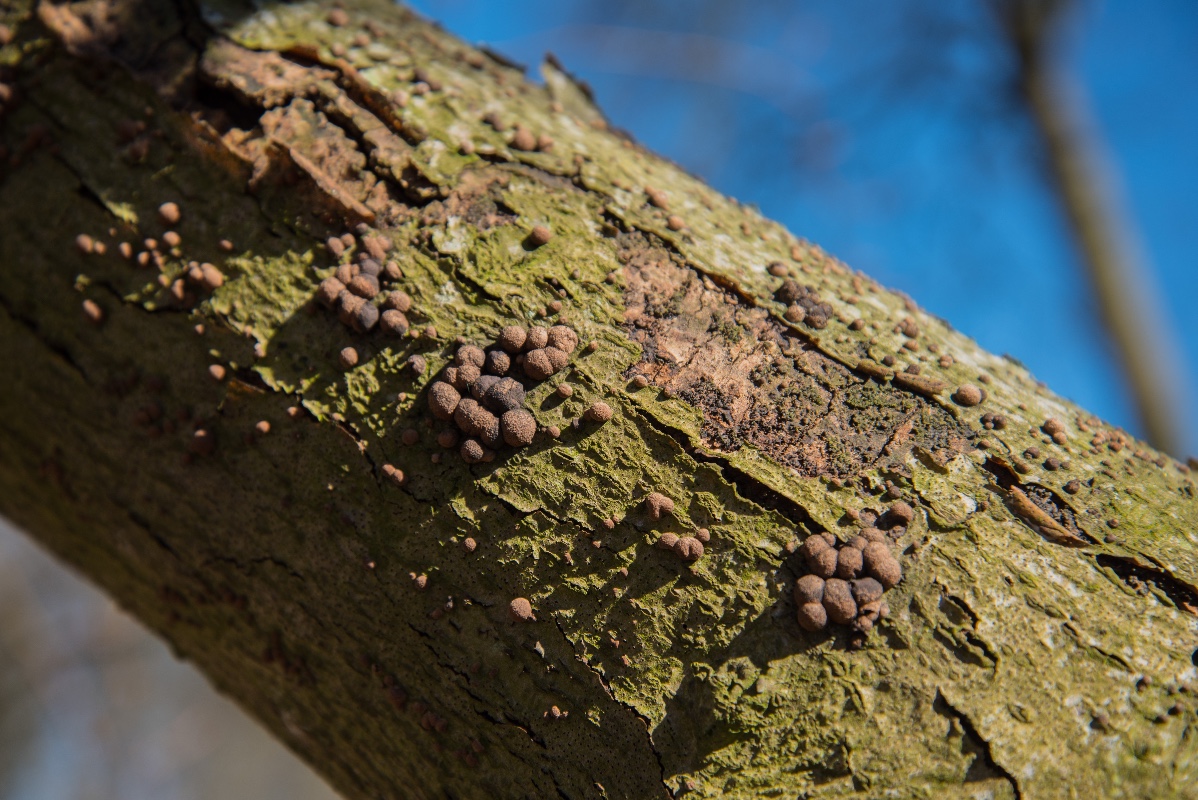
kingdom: Fungi
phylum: Ascomycota
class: Sordariomycetes
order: Xylariales
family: Hypoxylaceae
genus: Hypoxylon
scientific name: Hypoxylon fragiforme
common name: kuljordbær
